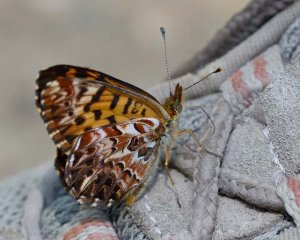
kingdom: Animalia
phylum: Arthropoda
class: Insecta
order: Lepidoptera
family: Nymphalidae
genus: Boloria
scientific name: Boloria chariclea
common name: Arctic Fritillary
